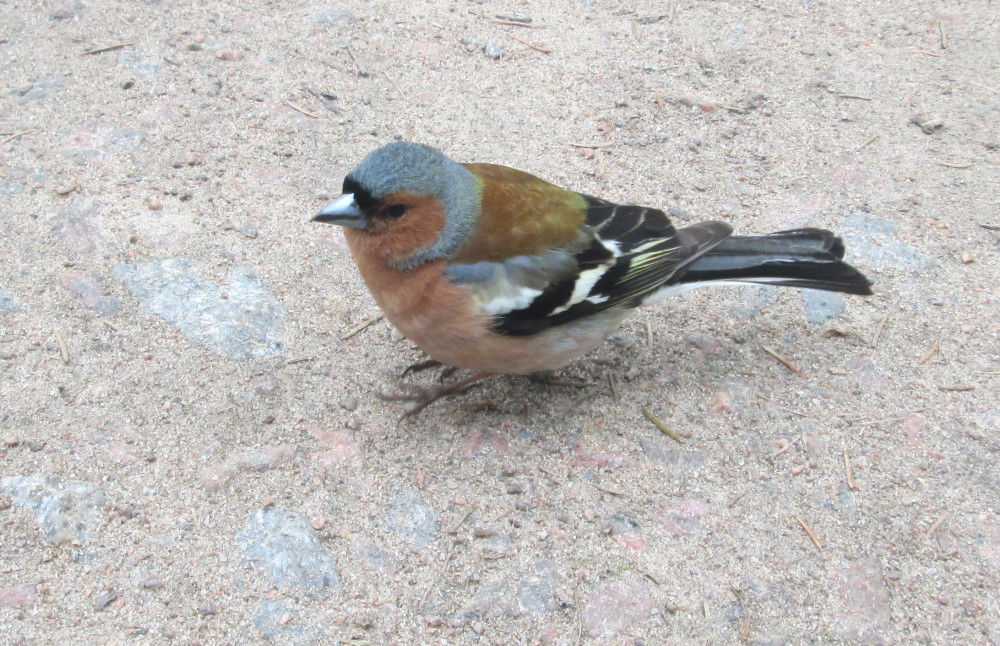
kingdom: Animalia
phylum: Chordata
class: Aves
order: Passeriformes
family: Fringillidae
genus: Fringilla
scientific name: Fringilla coelebs
